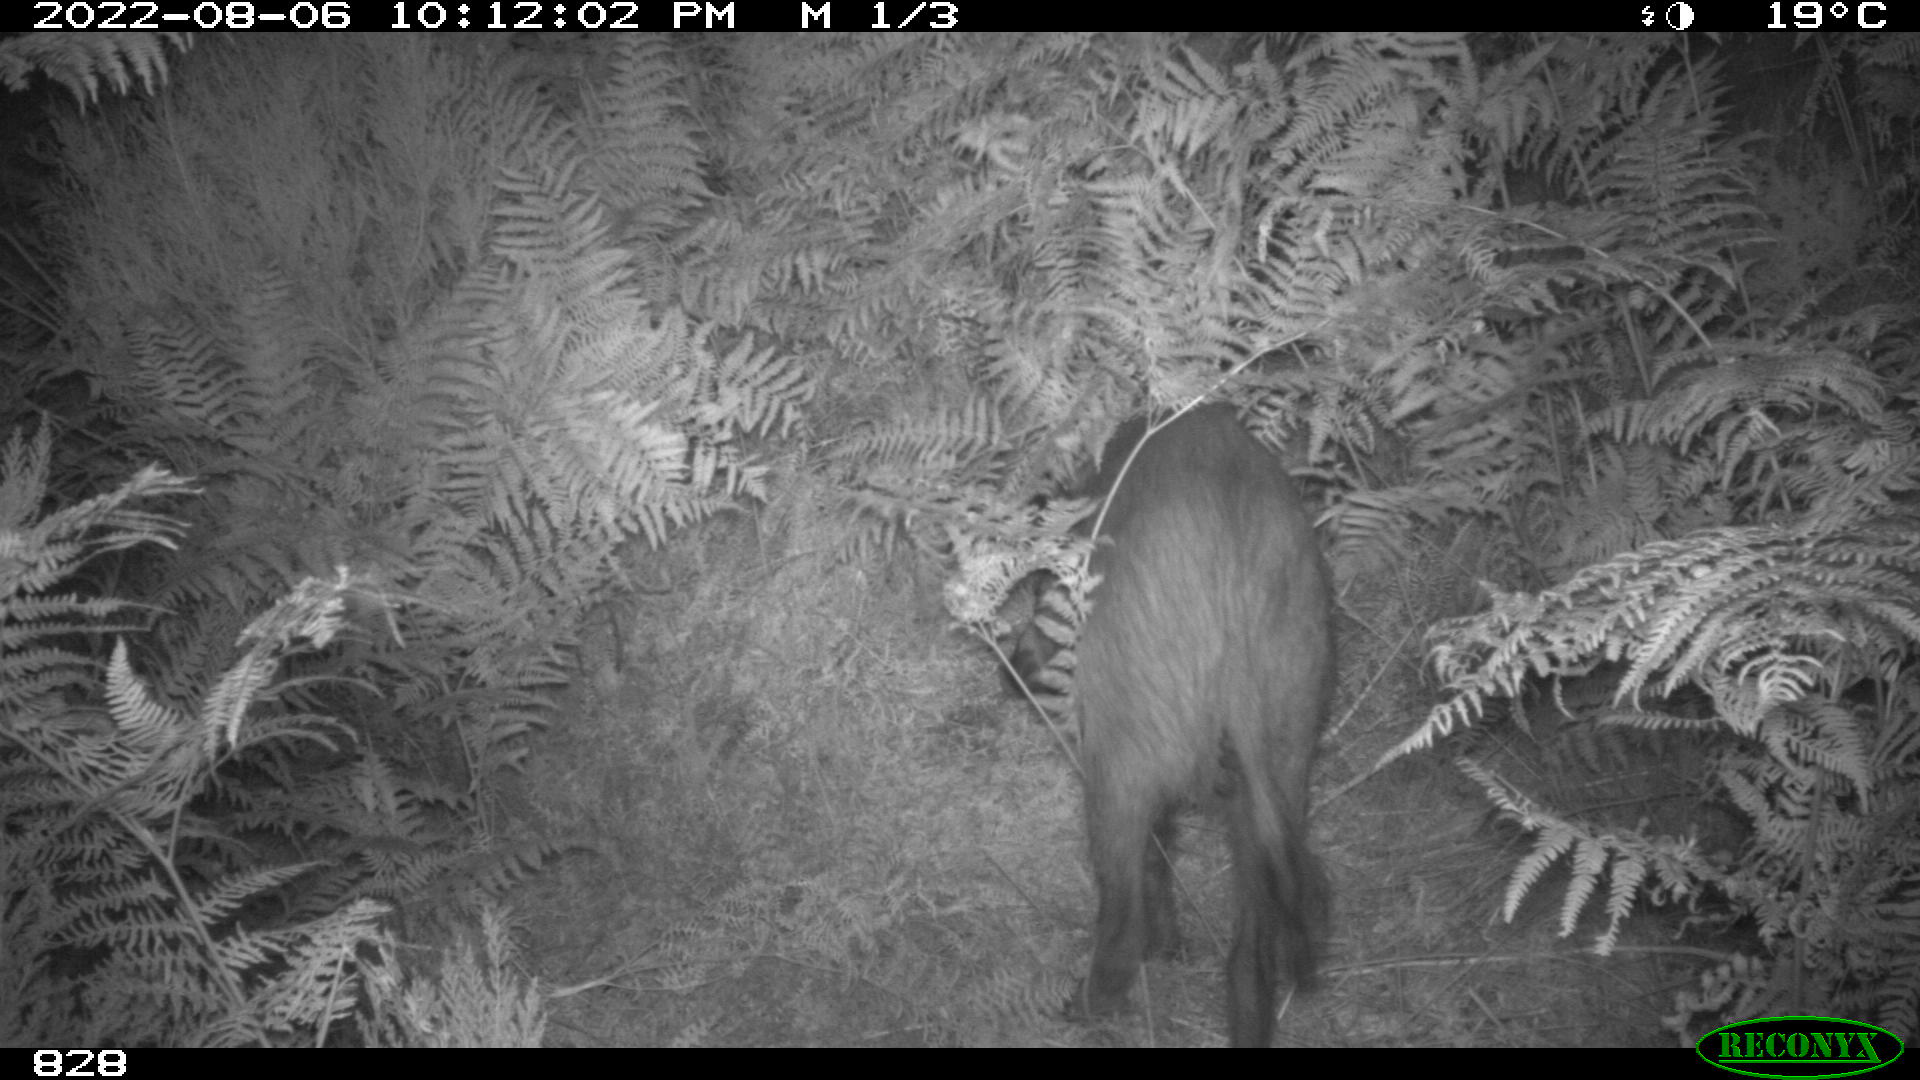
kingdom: Animalia
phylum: Chordata
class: Mammalia
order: Artiodactyla
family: Suidae
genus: Sus
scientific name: Sus scrofa
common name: Wild boar
